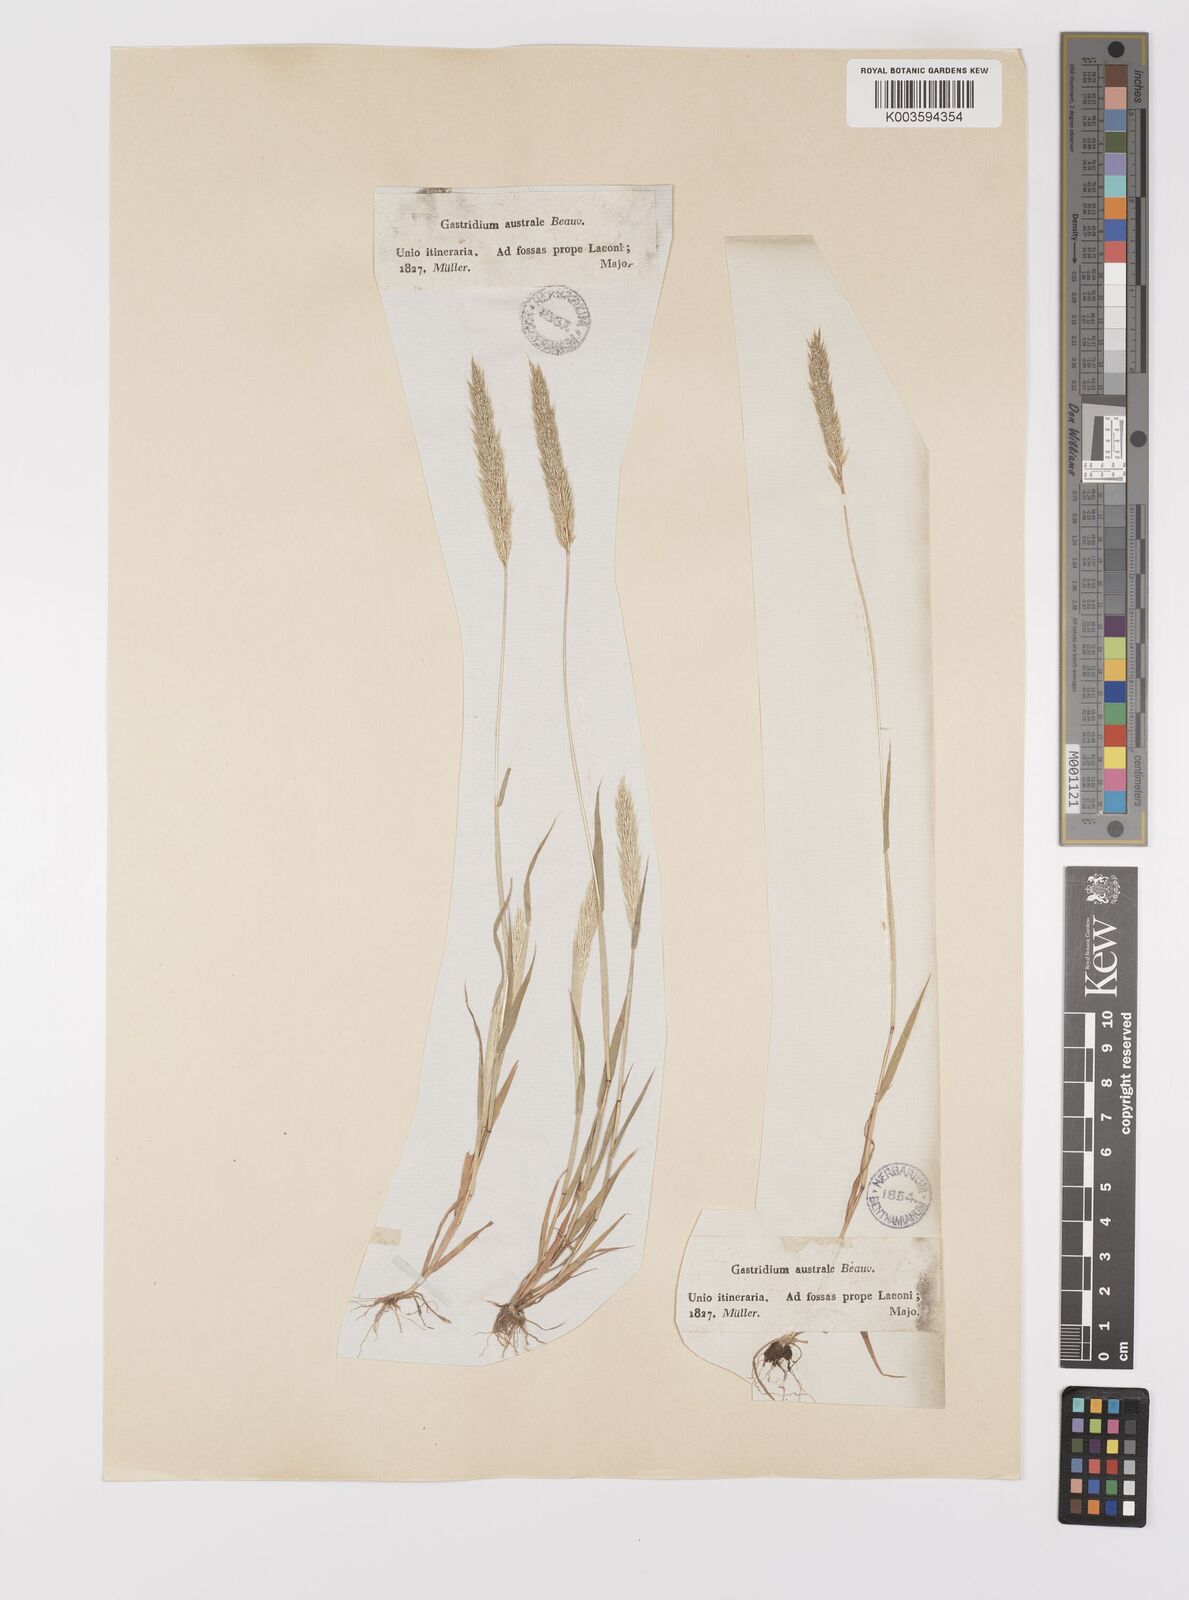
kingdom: Plantae
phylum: Tracheophyta
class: Liliopsida
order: Poales
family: Poaceae
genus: Gastridium
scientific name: Gastridium phleoides
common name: Nit grass
